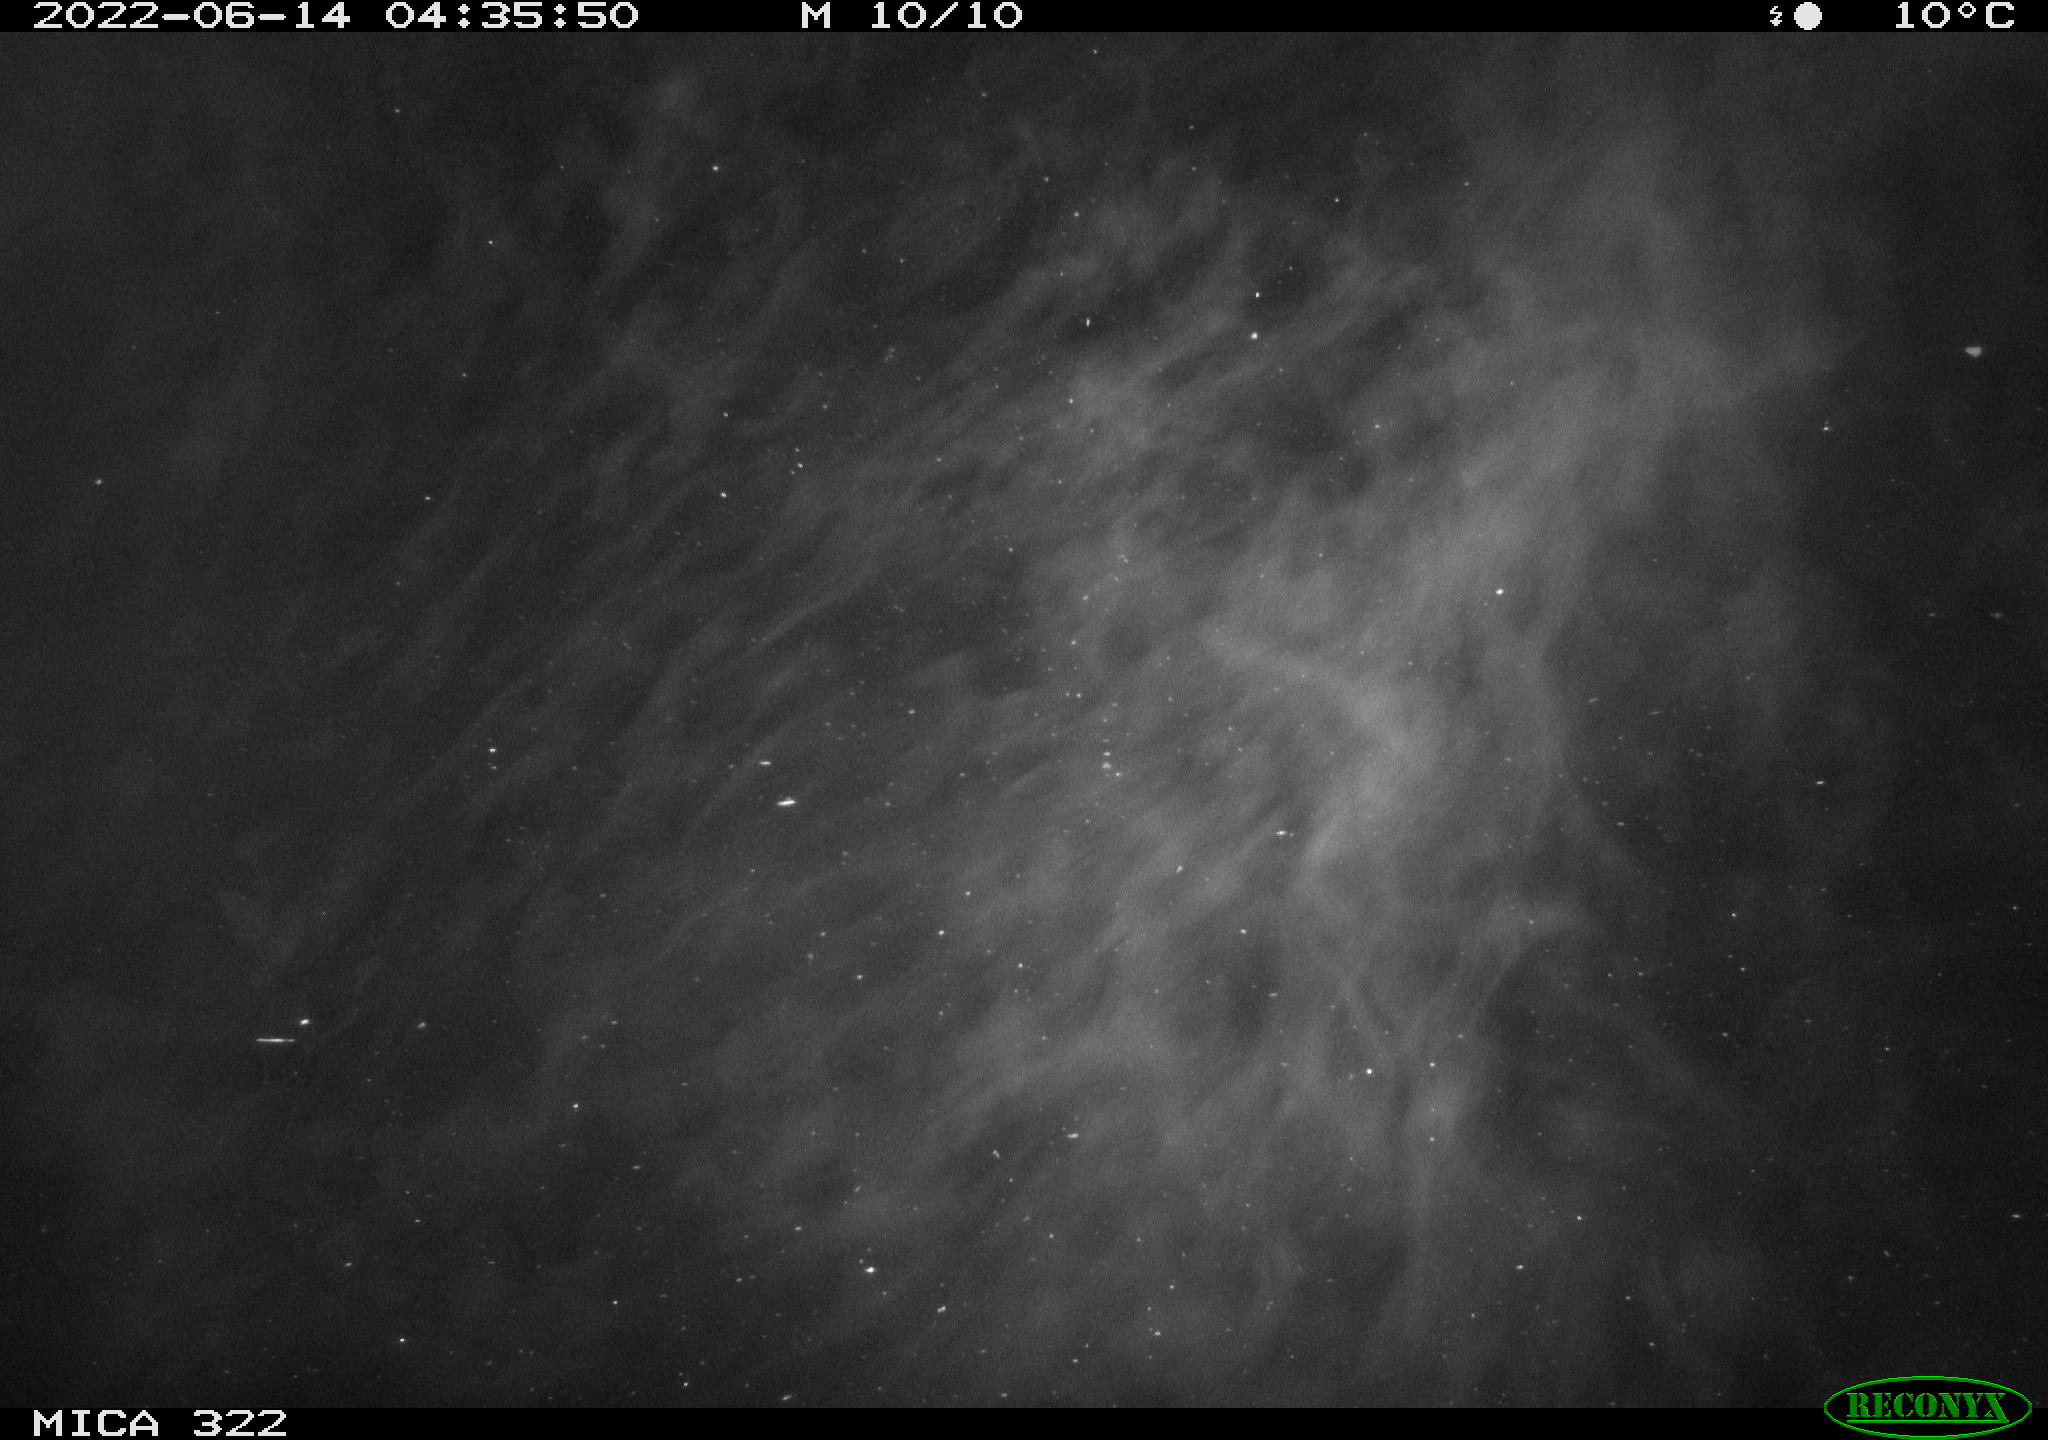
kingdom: Animalia
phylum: Chordata
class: Mammalia
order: Rodentia
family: Muridae
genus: Rattus
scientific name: Rattus norvegicus
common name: Brown rat
